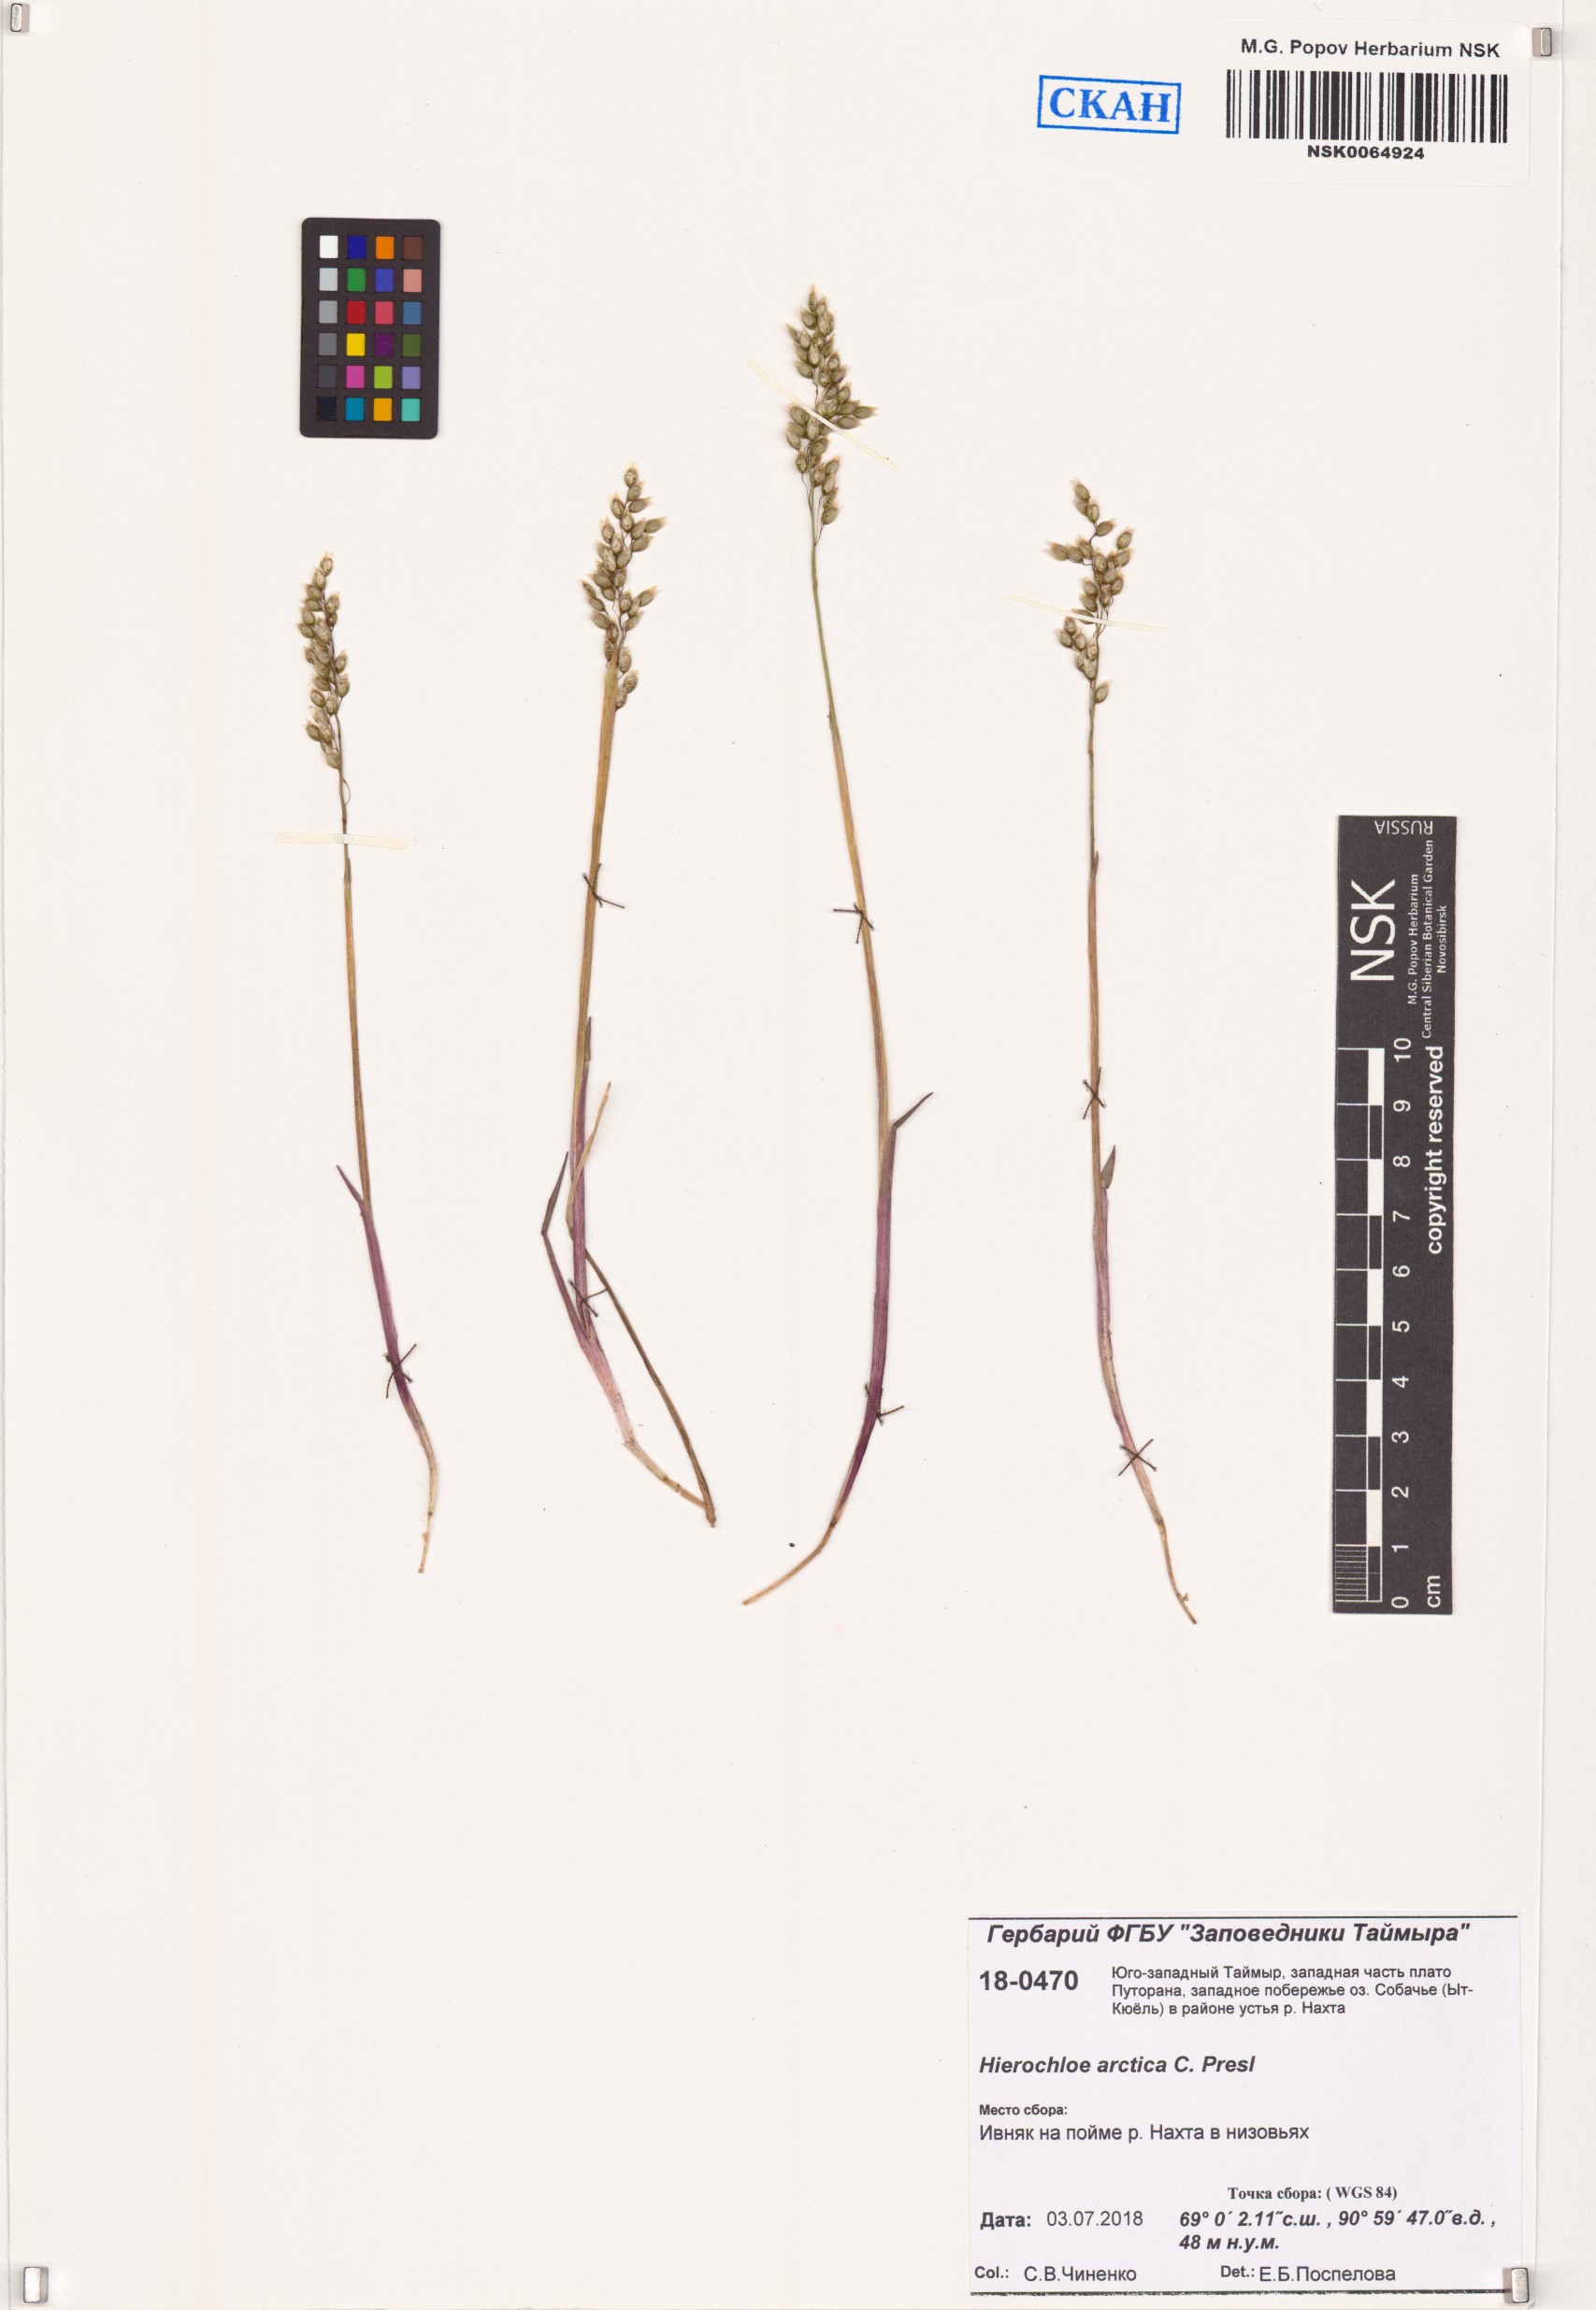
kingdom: Plantae
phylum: Tracheophyta
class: Liliopsida
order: Poales
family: Poaceae
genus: Anthoxanthum
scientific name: Anthoxanthum nitens
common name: Holy grass
